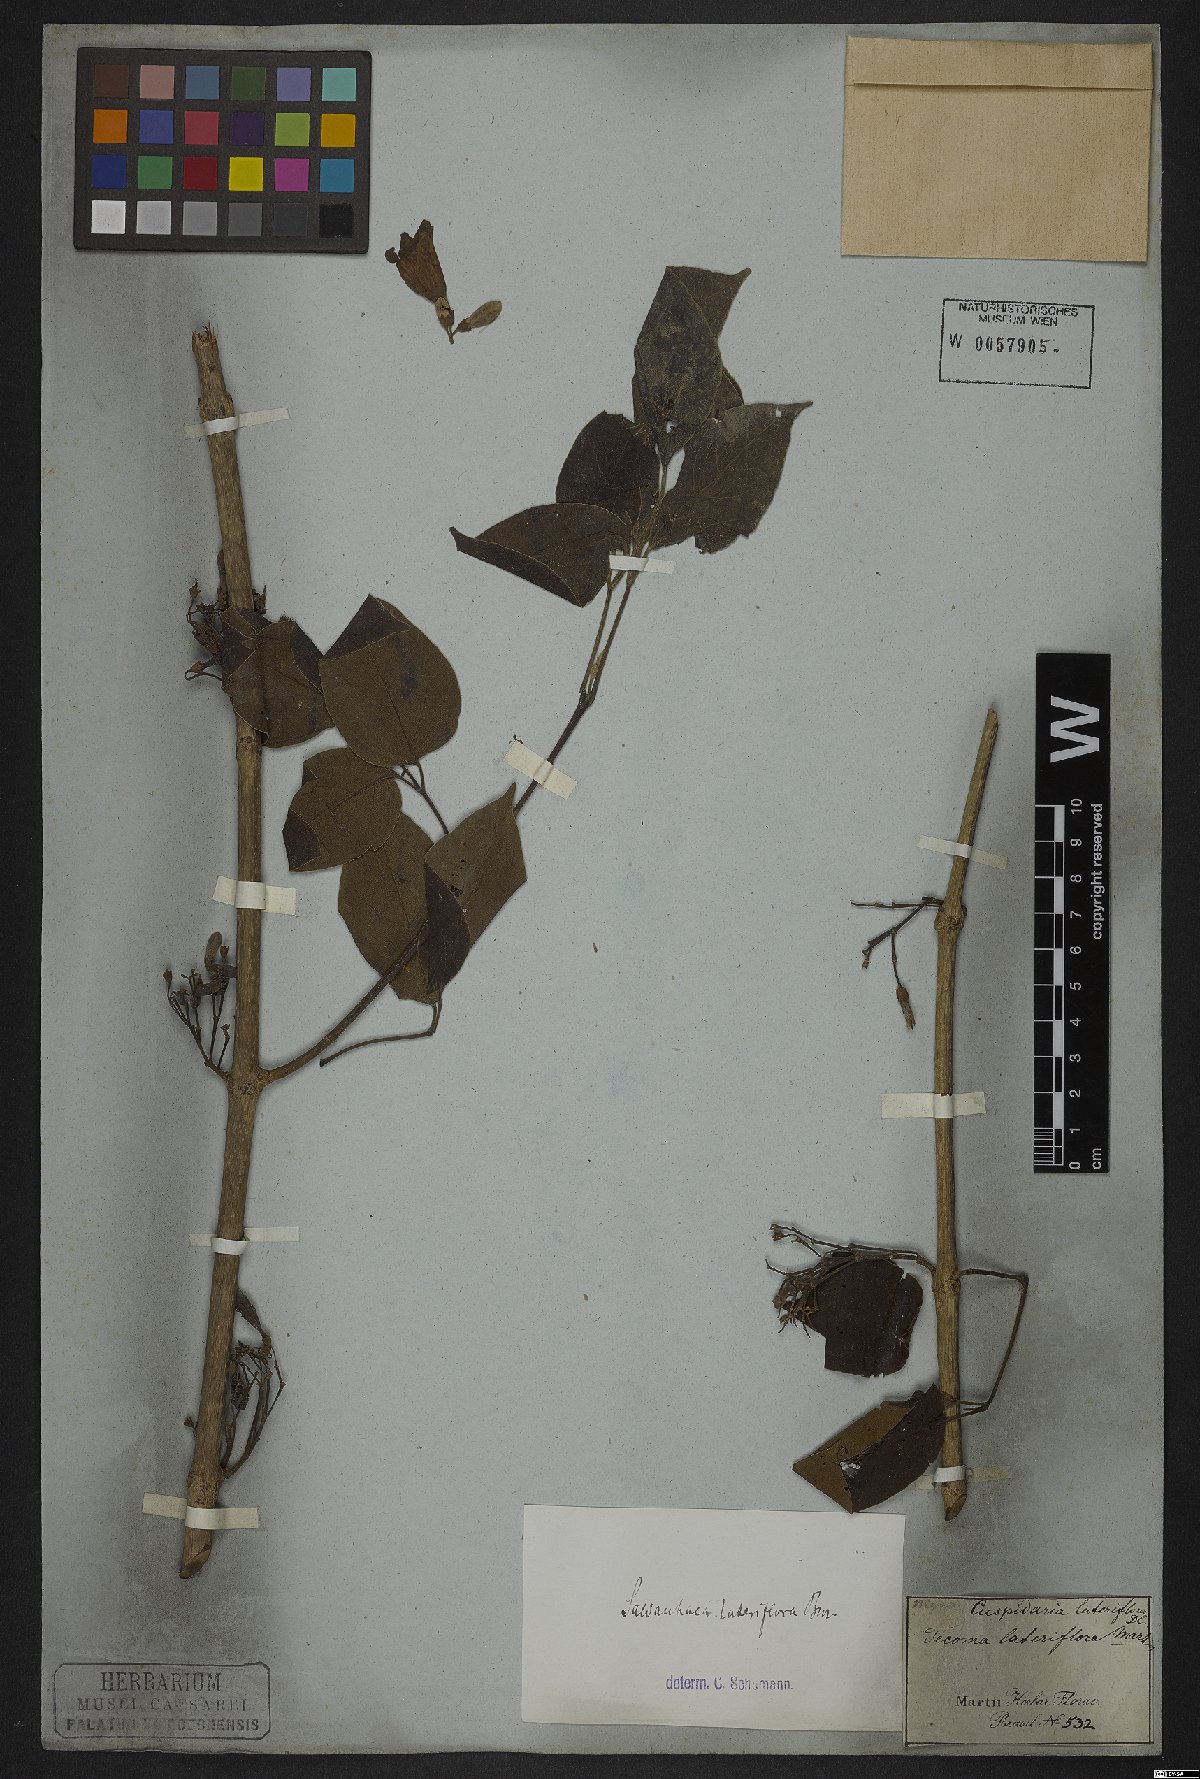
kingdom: Plantae
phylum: Tracheophyta
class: Magnoliopsida
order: Lamiales
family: Bignoniaceae
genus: Cuspidaria
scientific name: Cuspidaria lateriflora
